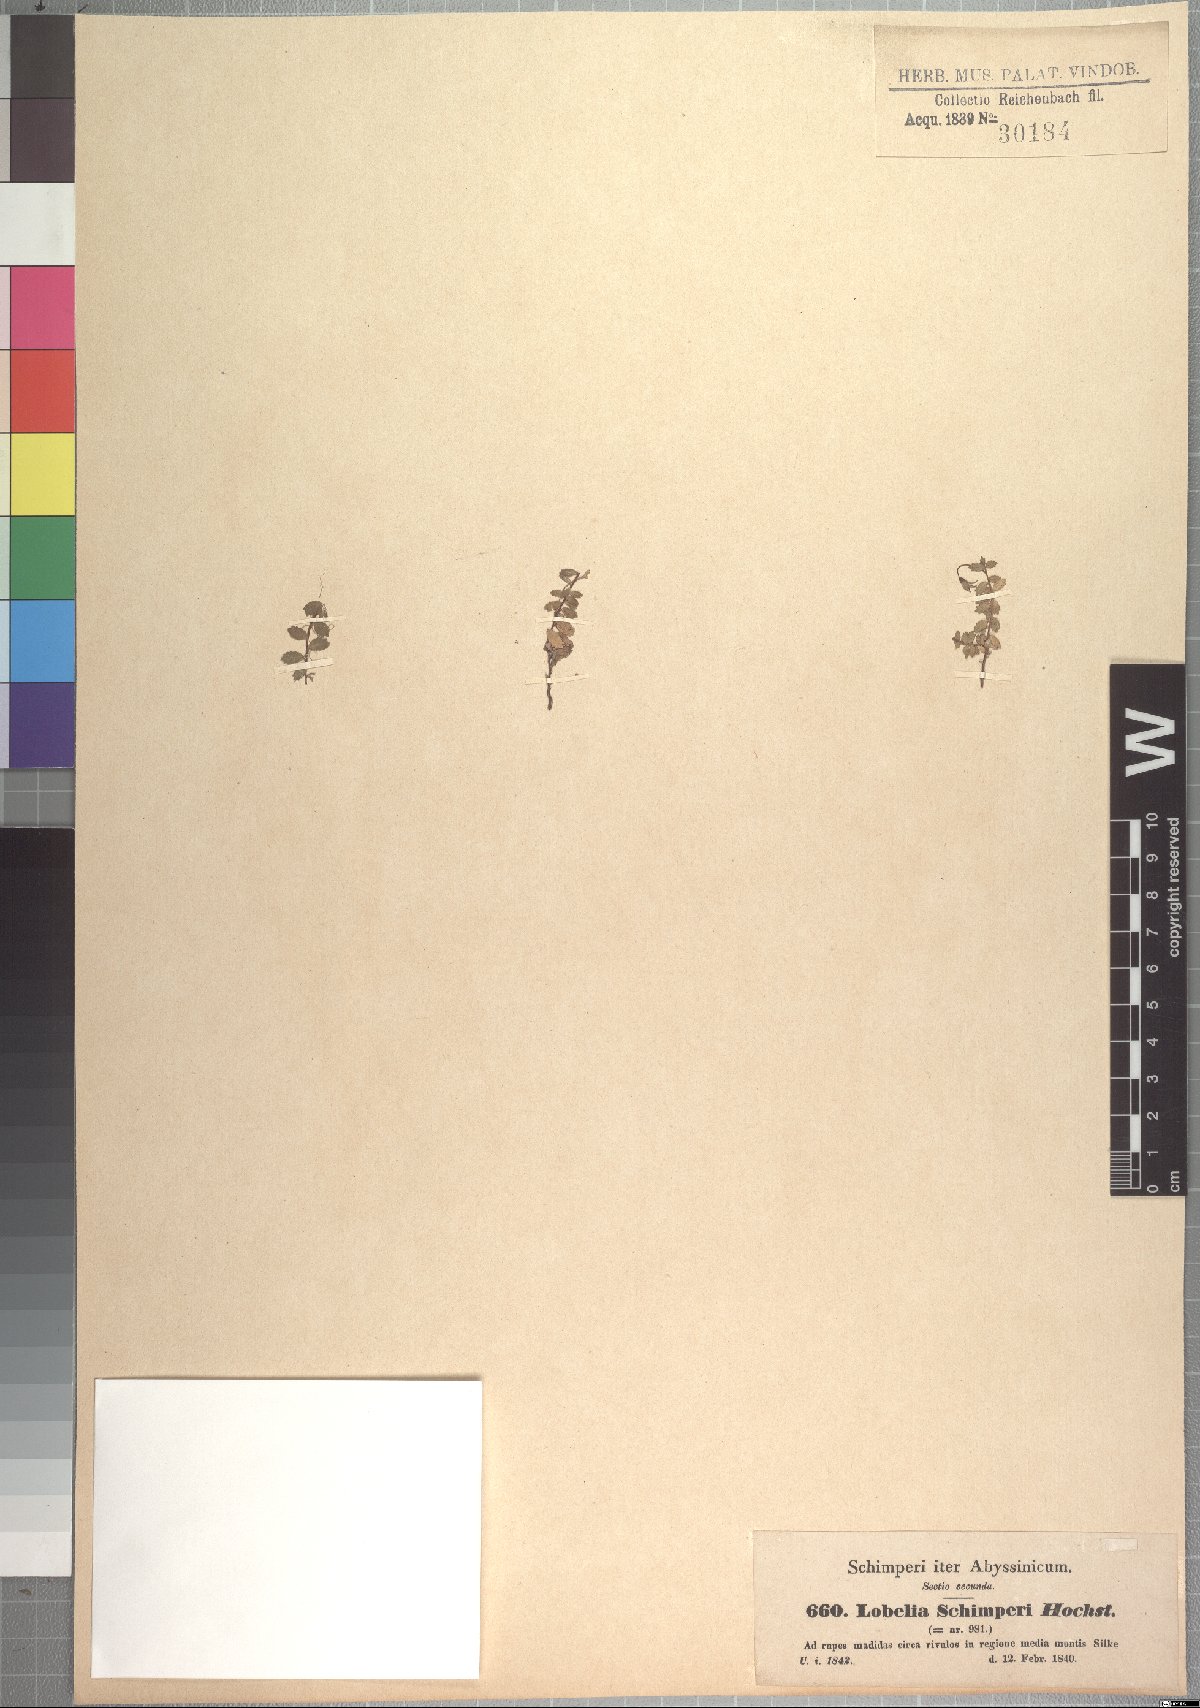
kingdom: Plantae
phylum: Tracheophyta
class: Magnoliopsida
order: Asterales
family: Campanulaceae
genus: Lobelia
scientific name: Lobelia schimperi
